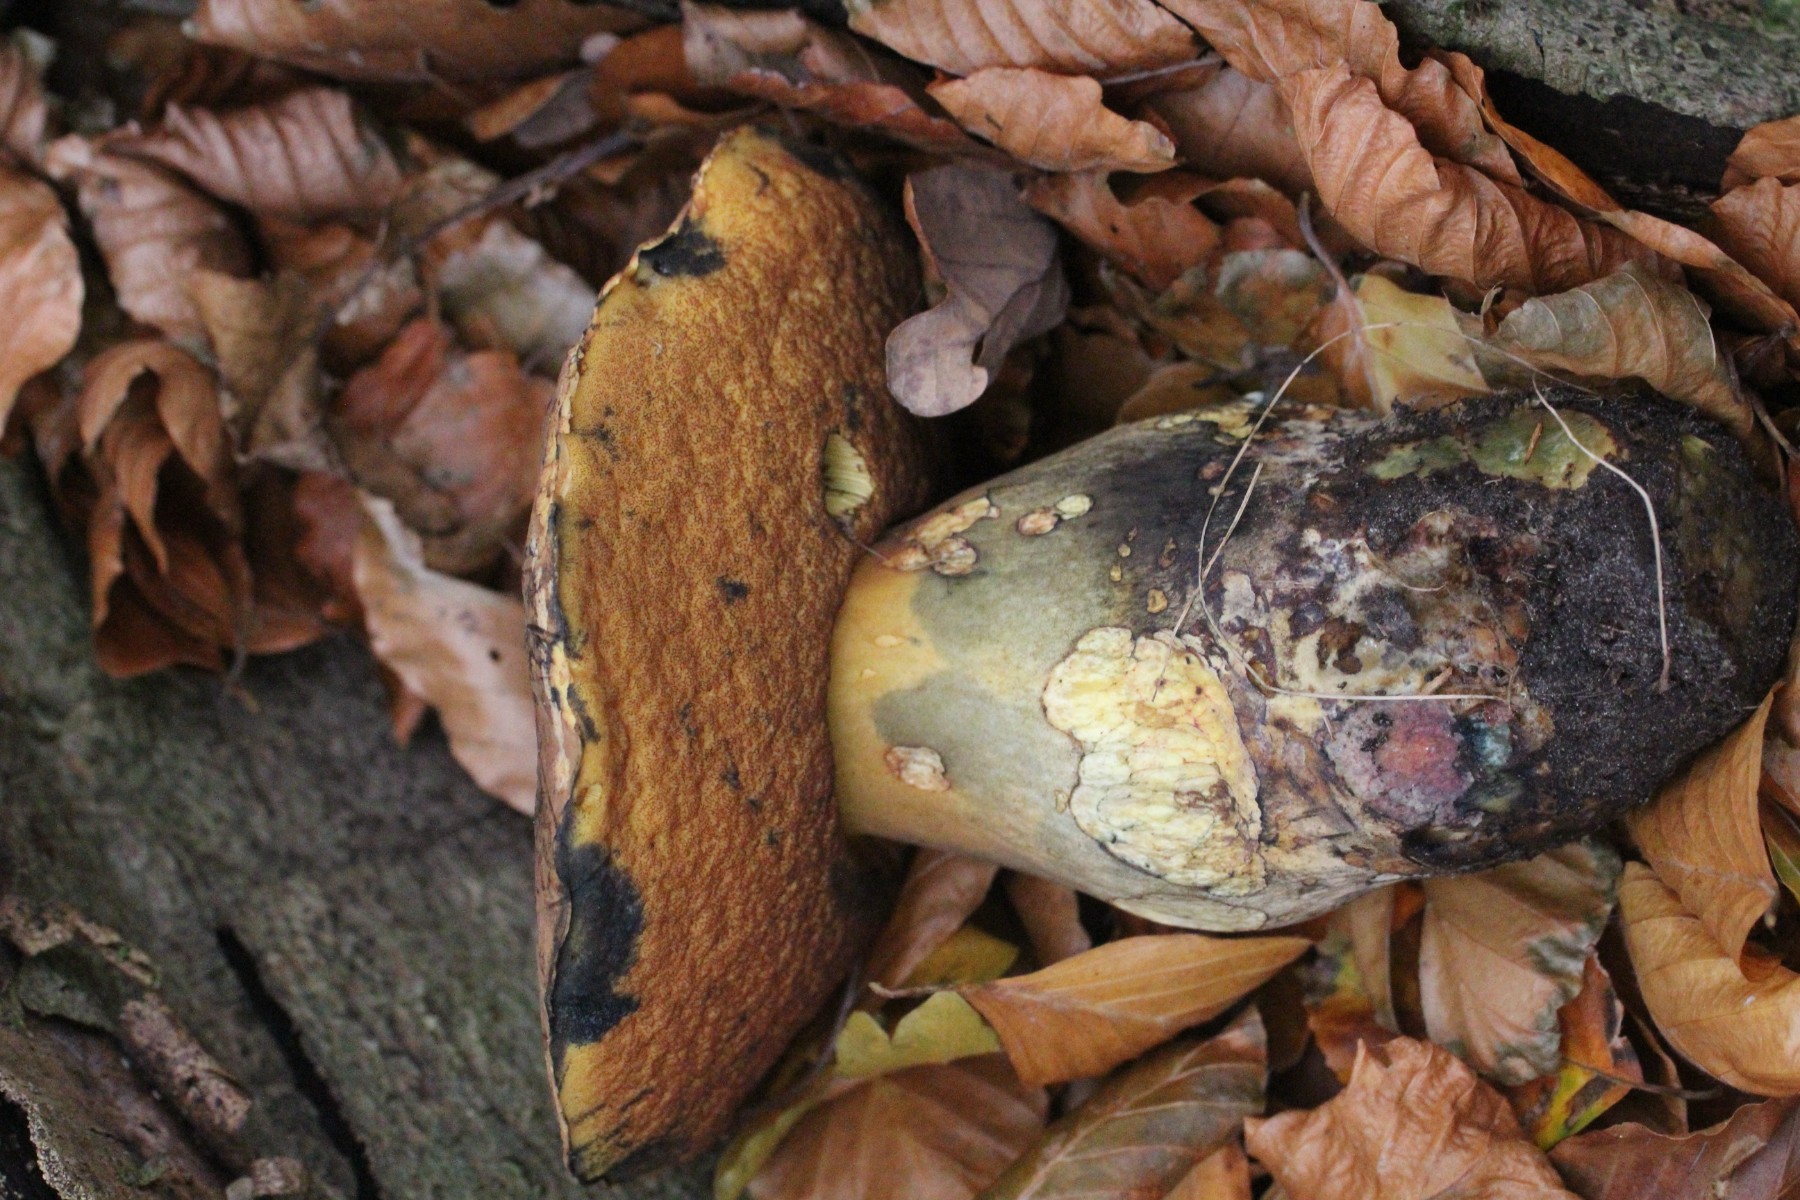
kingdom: Fungi
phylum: Basidiomycota
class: Agaricomycetes
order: Boletales
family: Boletaceae
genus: Neoboletus
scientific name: Neoboletus
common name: indigorørhat
